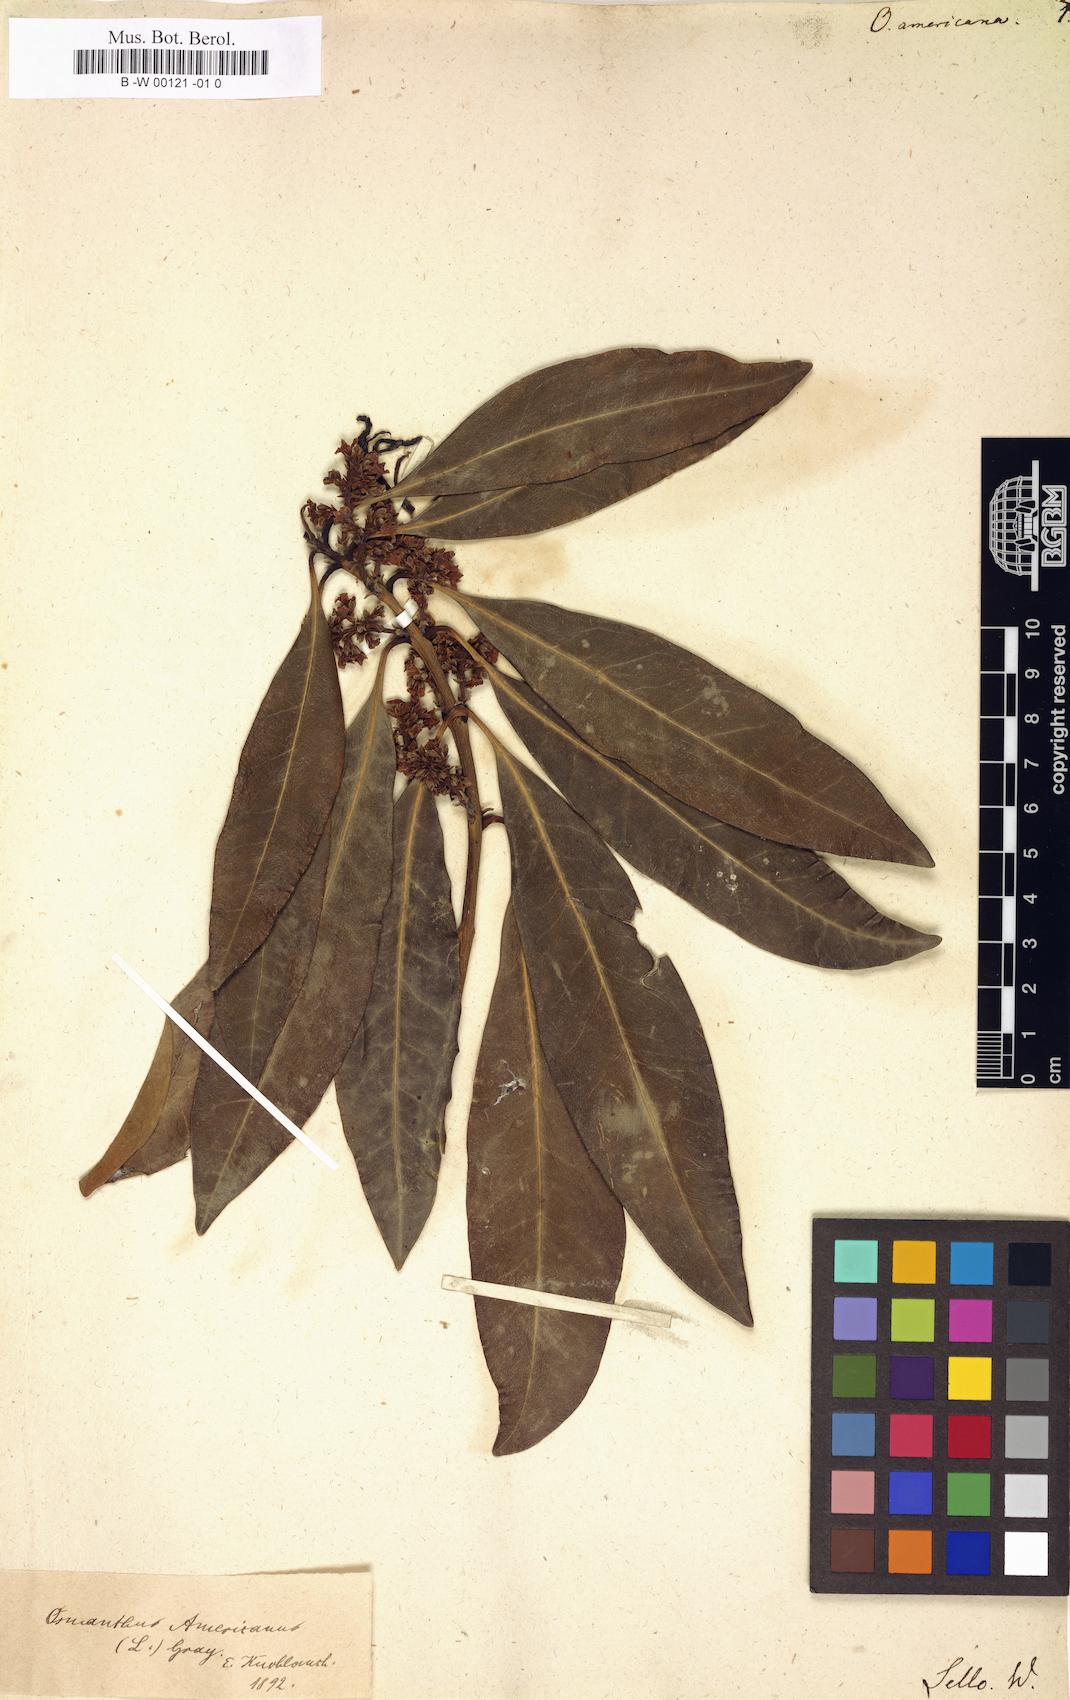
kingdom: Plantae
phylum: Tracheophyta
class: Magnoliopsida
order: Lamiales
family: Oleaceae
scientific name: Oleaceae
